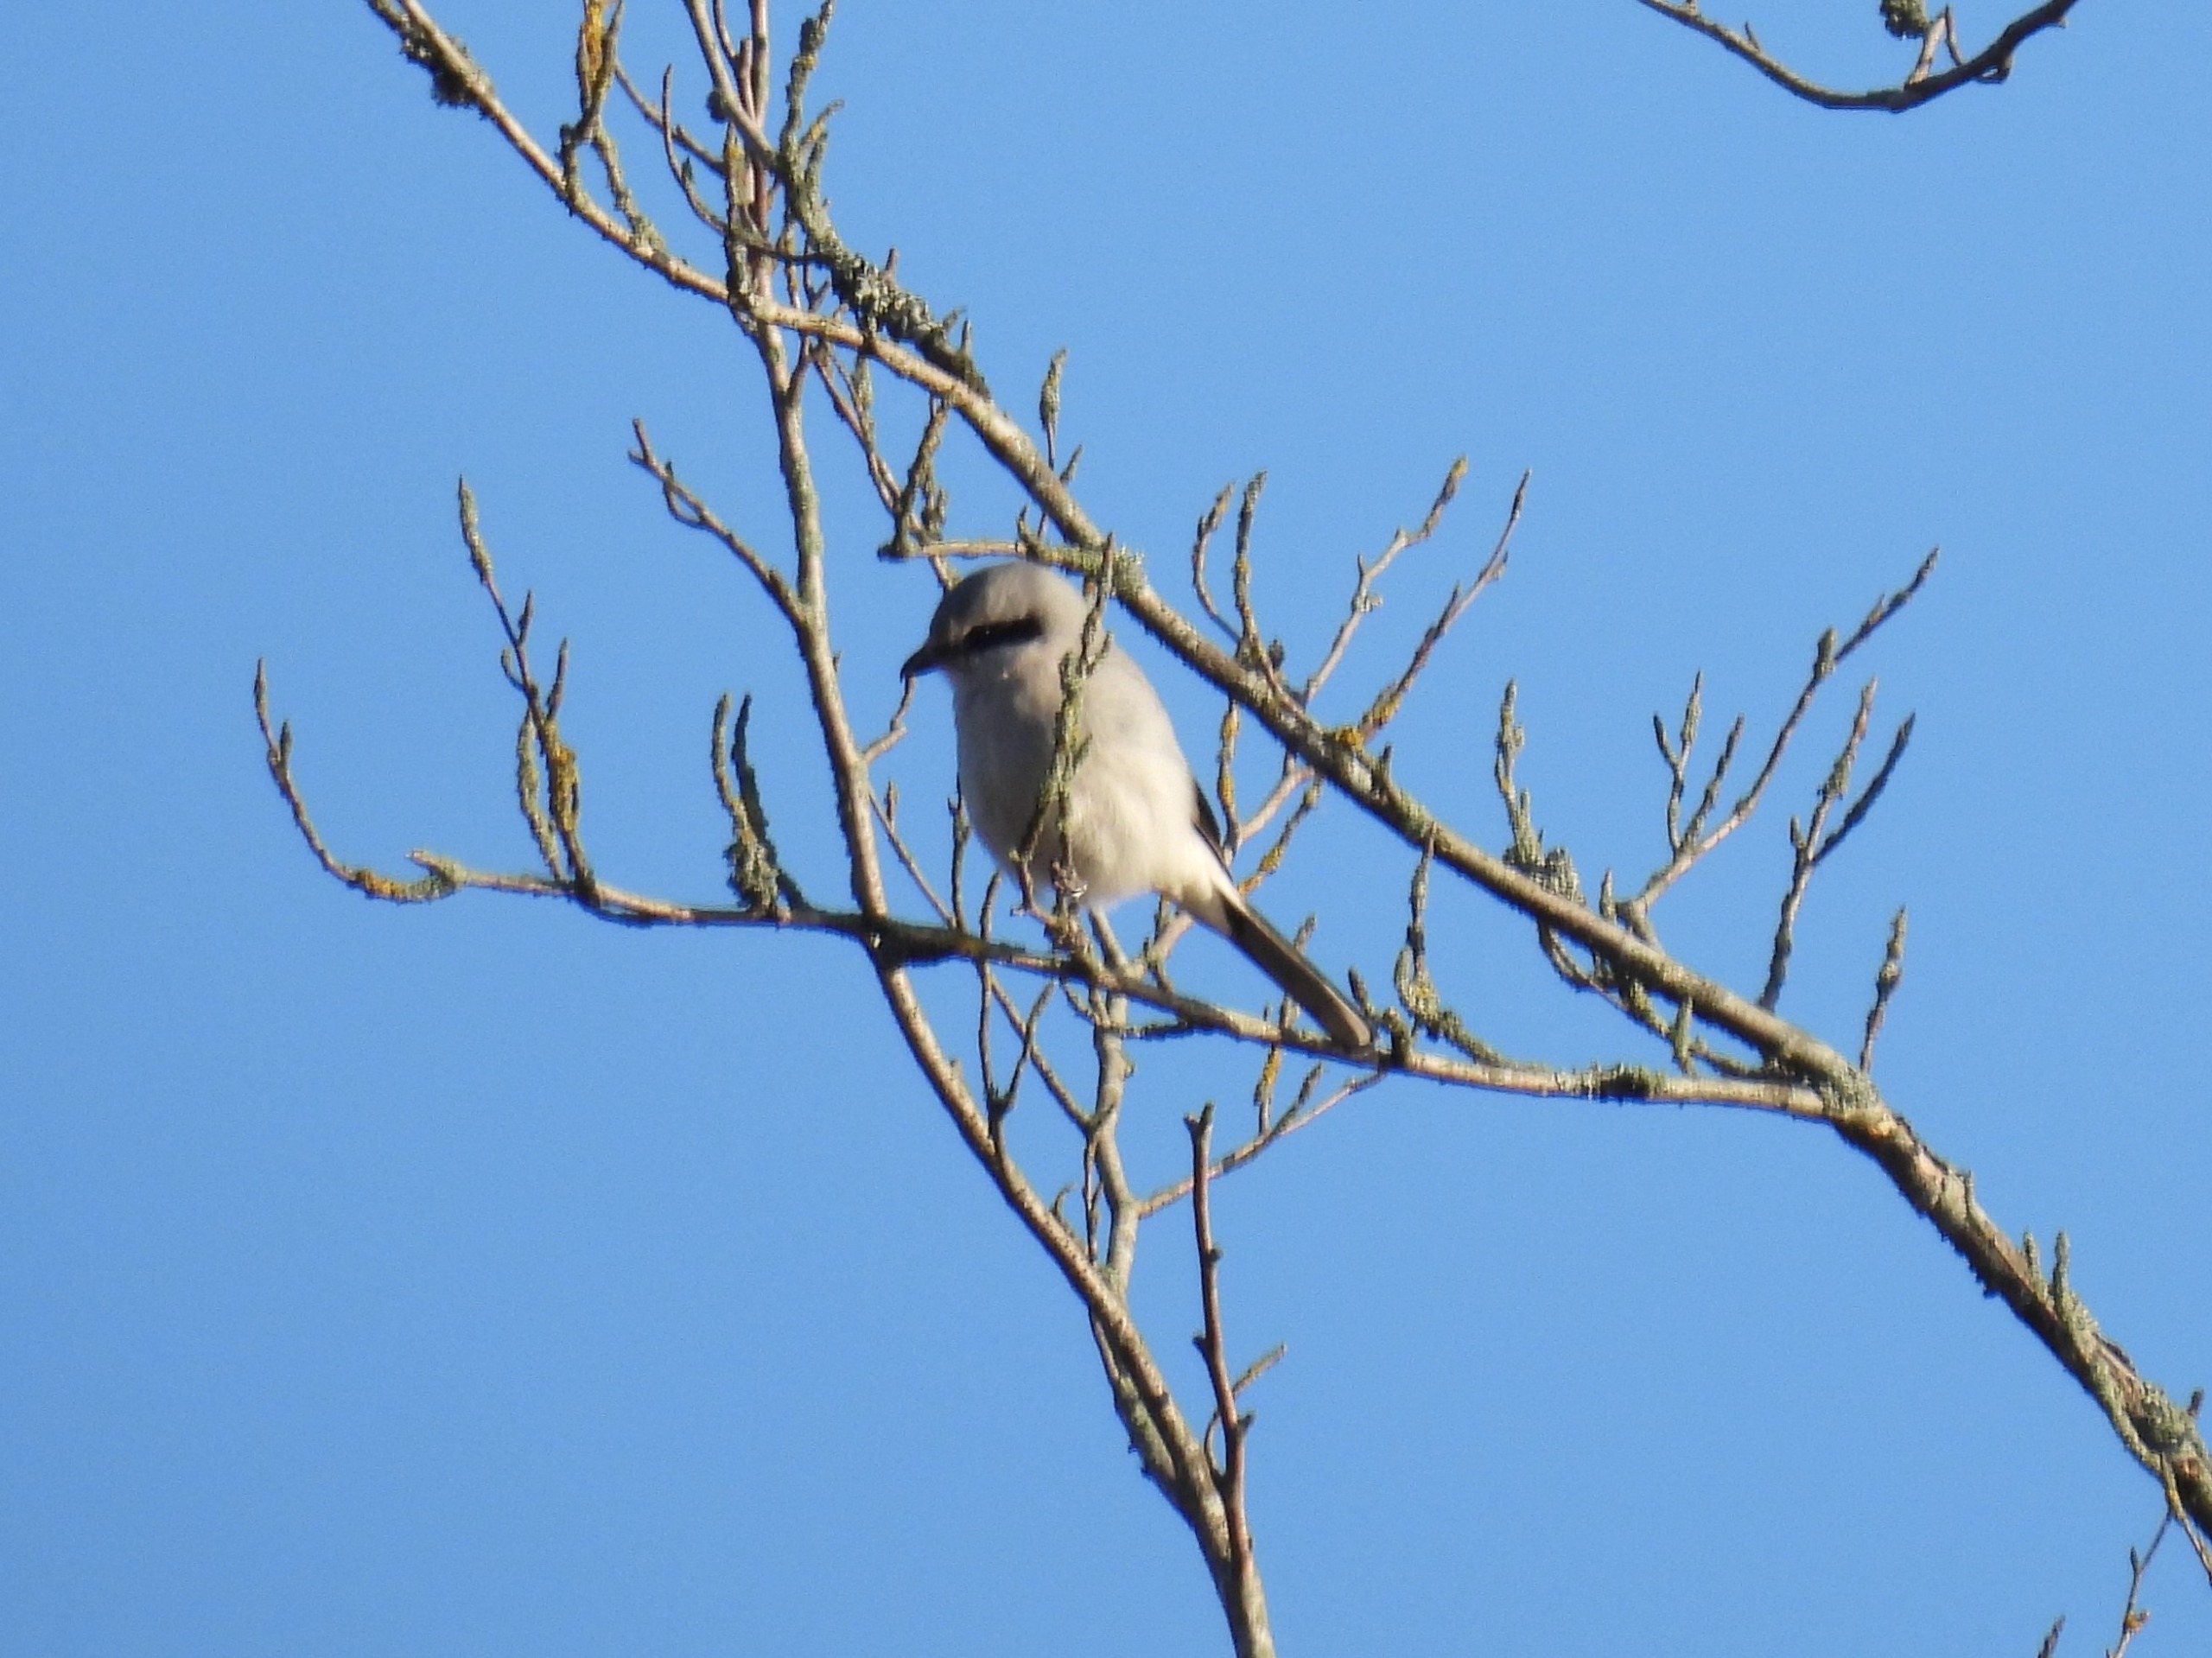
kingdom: Animalia
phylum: Chordata
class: Aves
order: Passeriformes
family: Laniidae
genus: Lanius
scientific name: Lanius excubitor
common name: Stor tornskade
